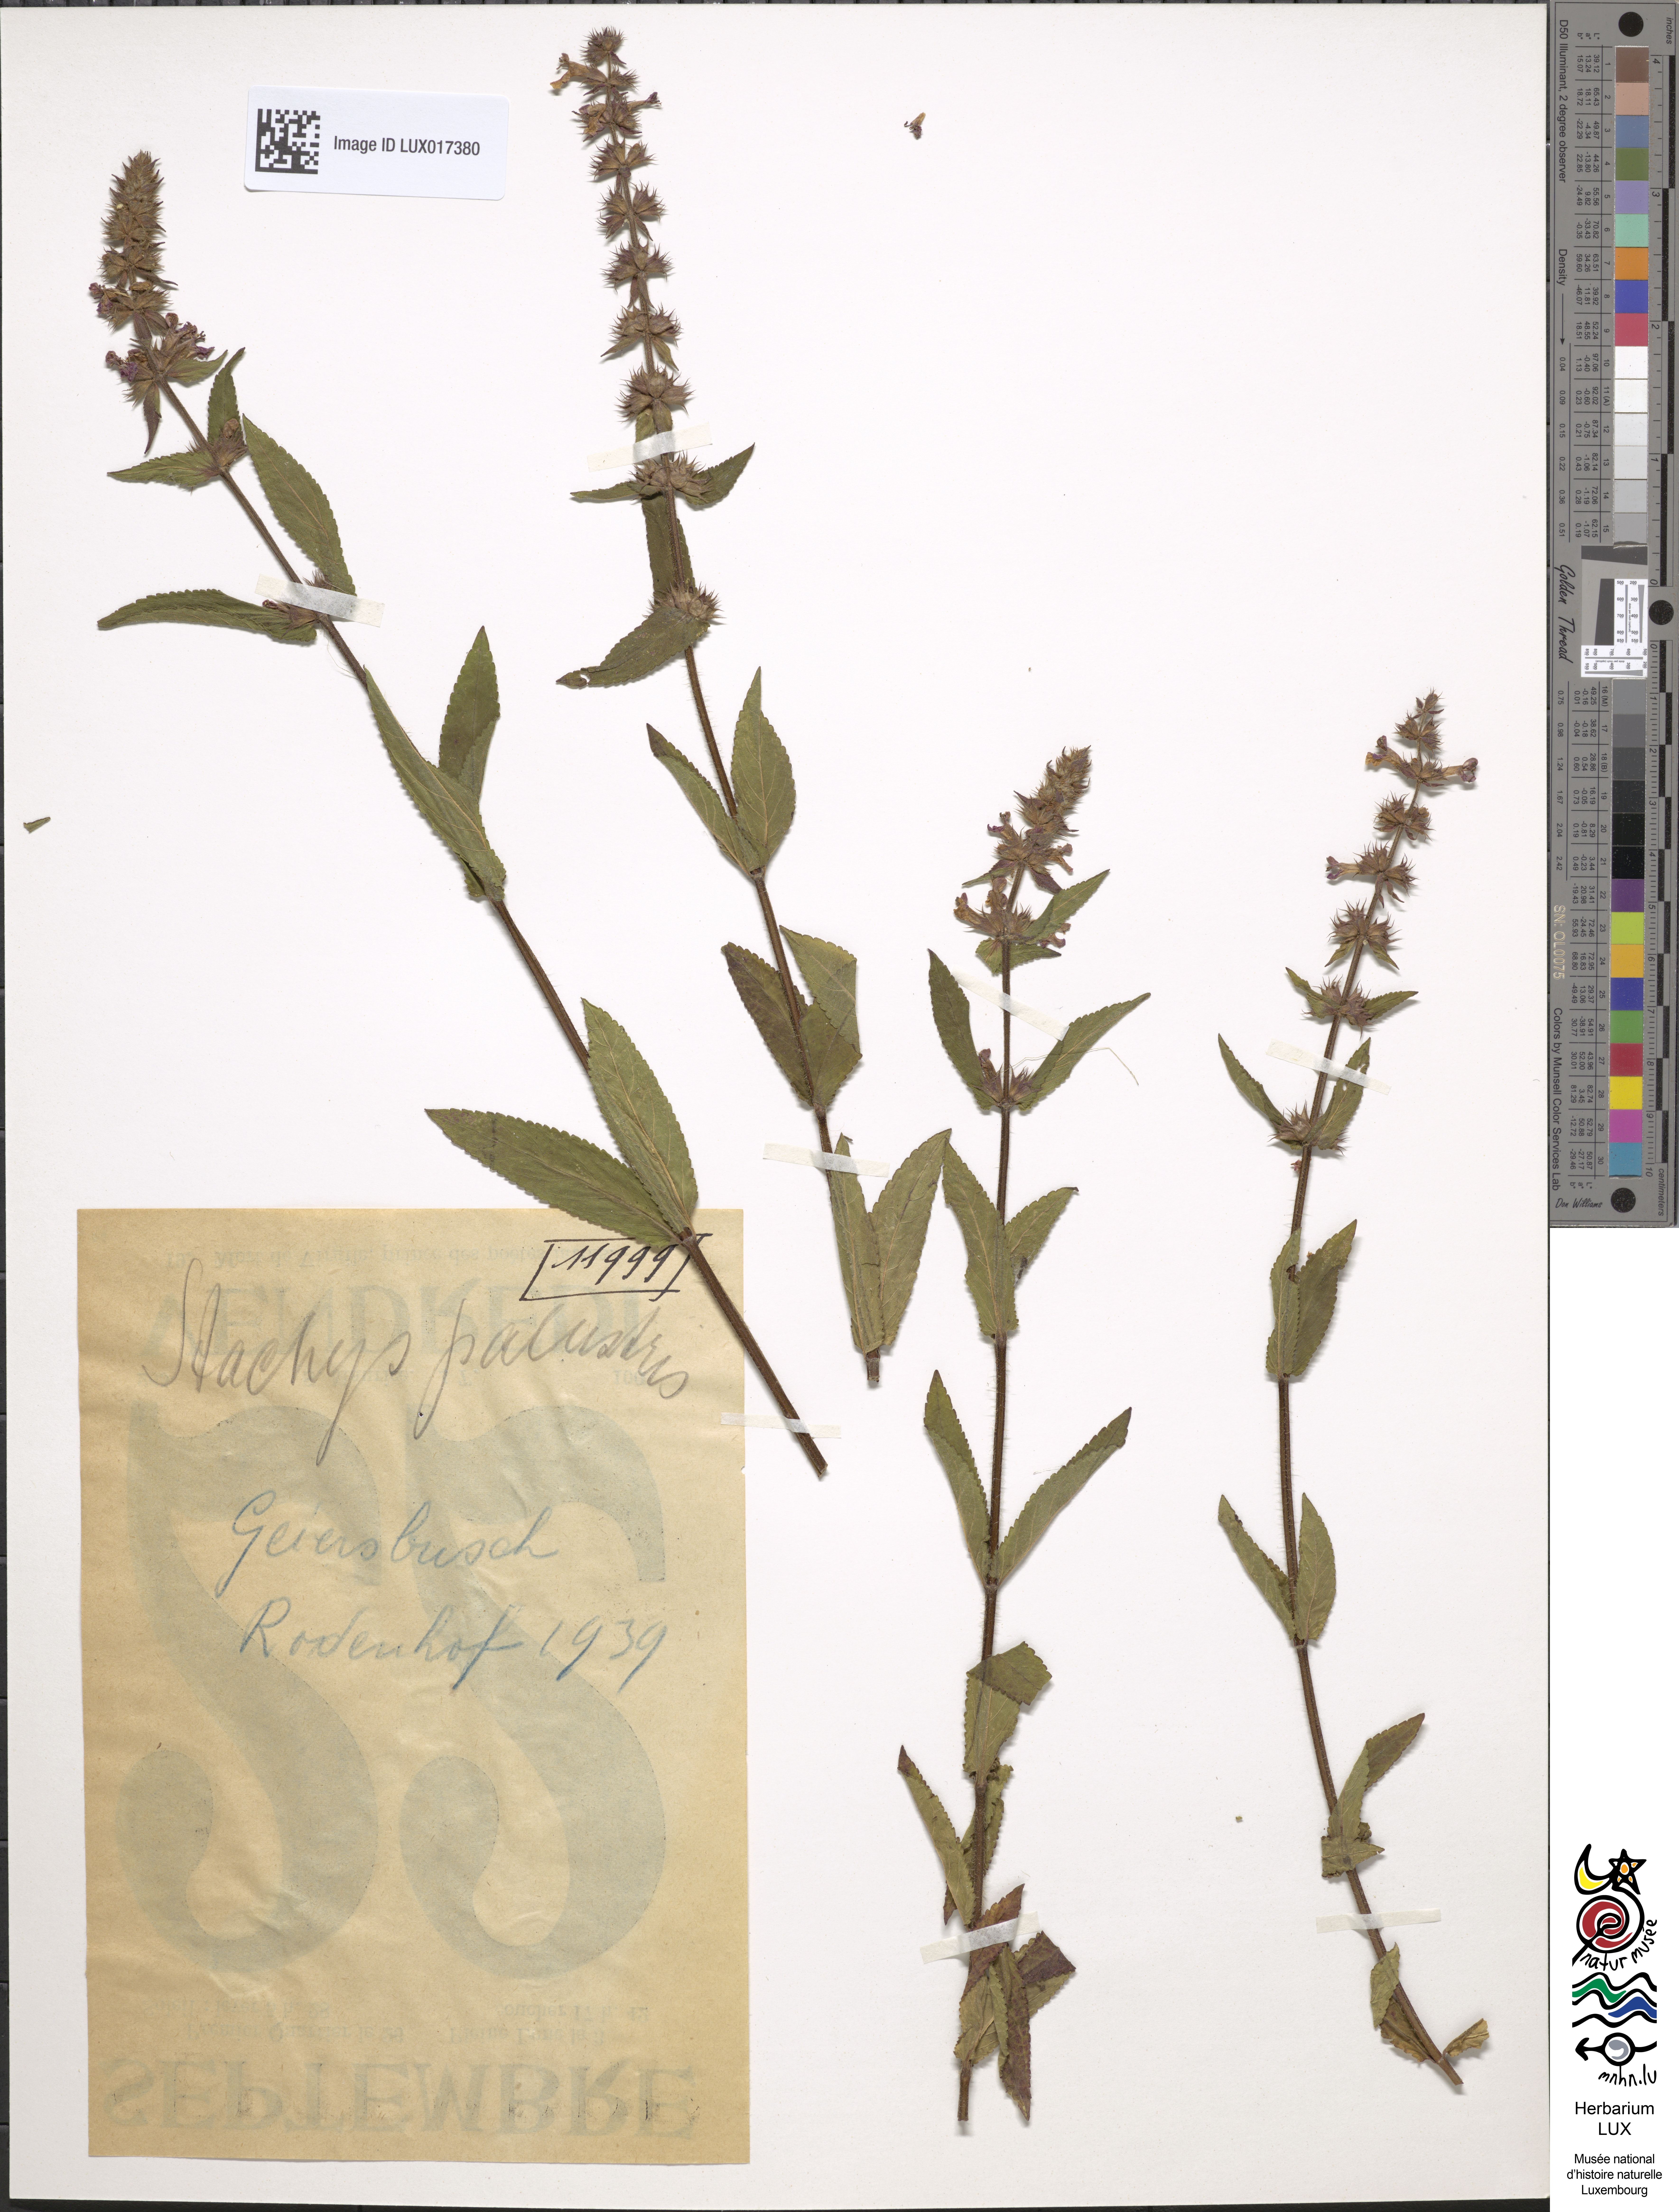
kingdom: Plantae
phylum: Tracheophyta
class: Magnoliopsida
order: Lamiales
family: Lamiaceae
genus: Stachys
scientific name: Stachys palustris
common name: Marsh woundwort
